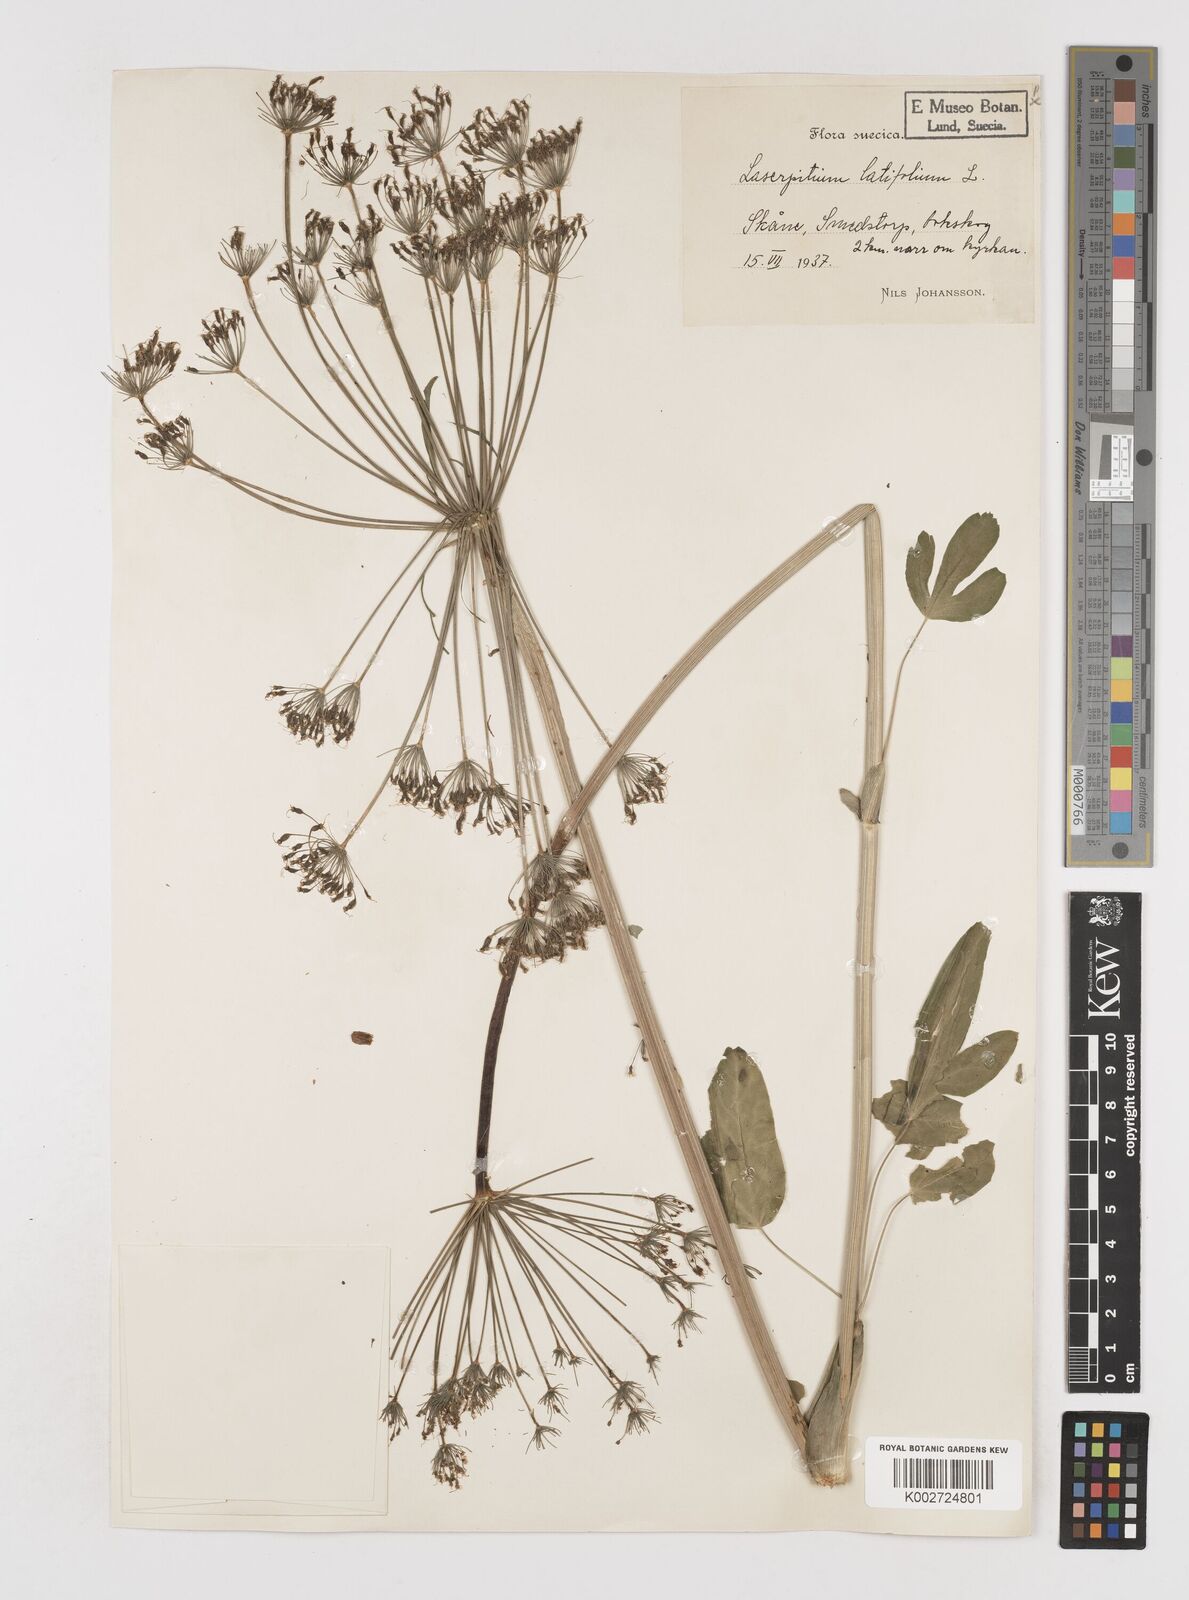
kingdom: Plantae
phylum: Tracheophyta
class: Magnoliopsida
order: Apiales
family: Apiaceae
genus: Laserpitium
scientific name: Laserpitium latifolium
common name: Broadleaf sermountain
